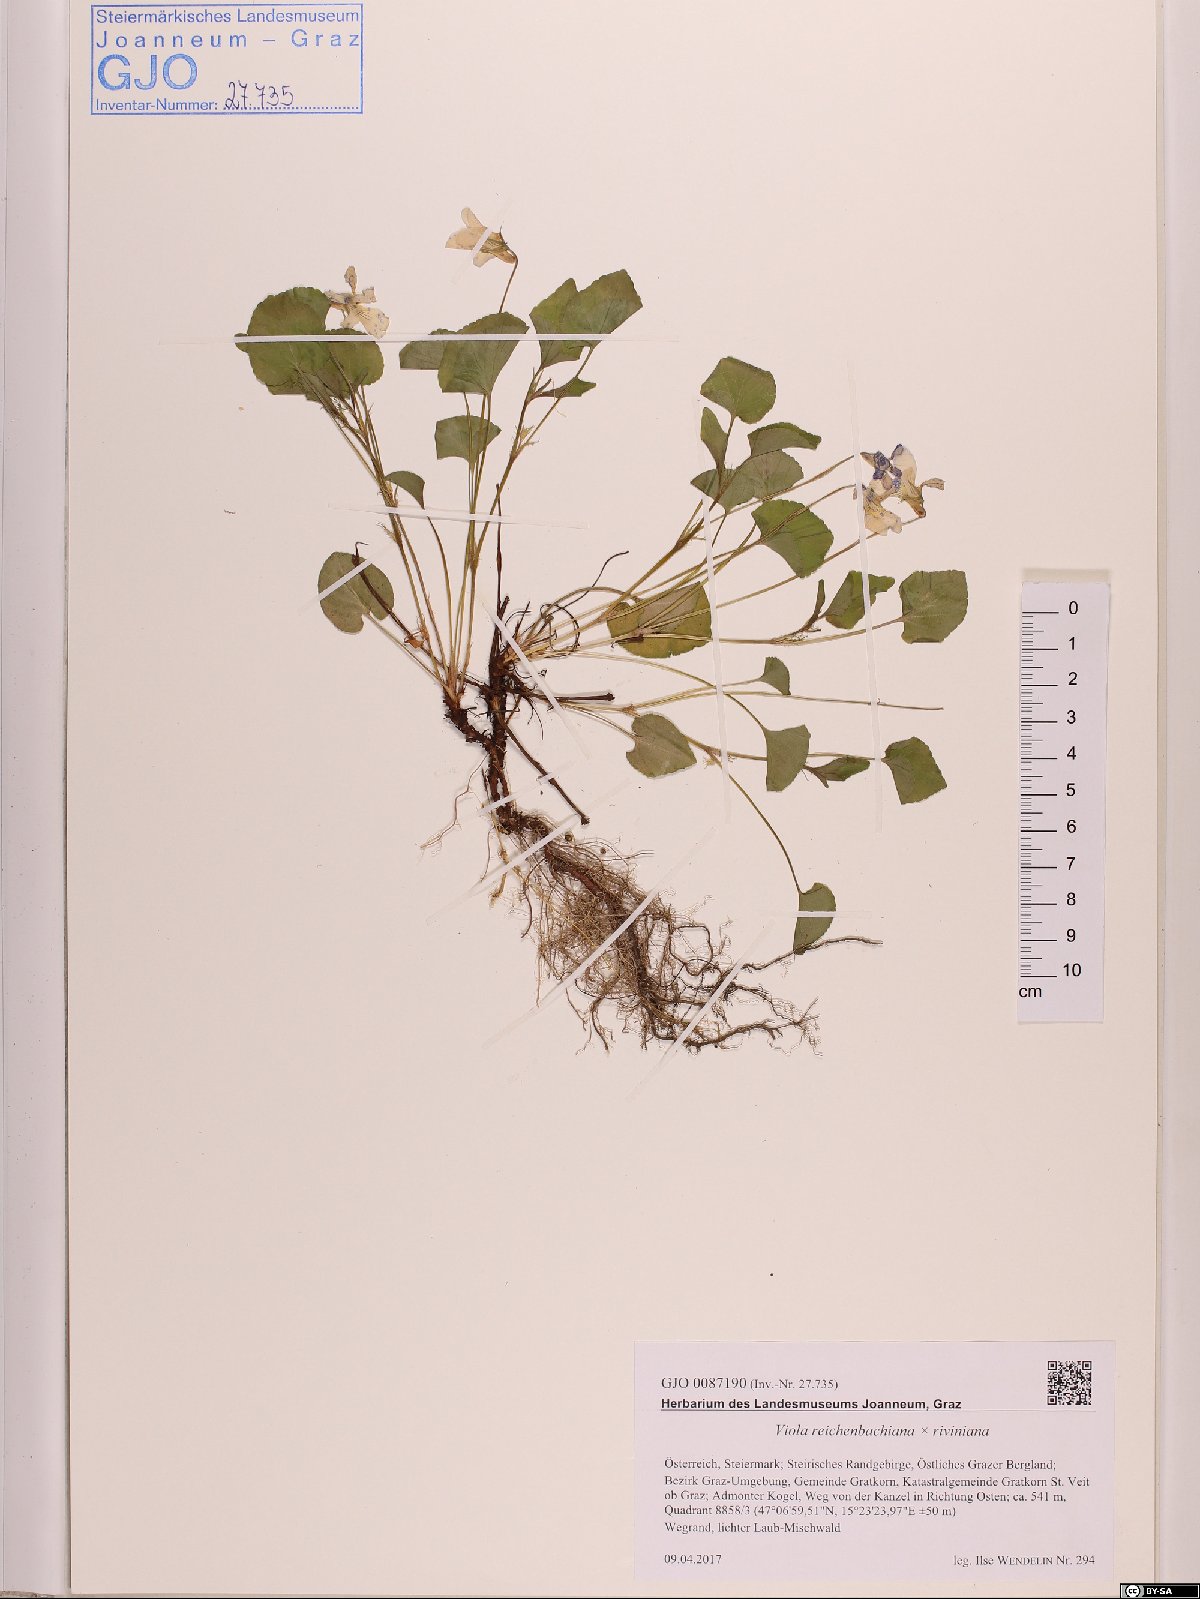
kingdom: Plantae
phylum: Tracheophyta
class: Magnoliopsida
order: Malpighiales
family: Violaceae
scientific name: Violaceae
